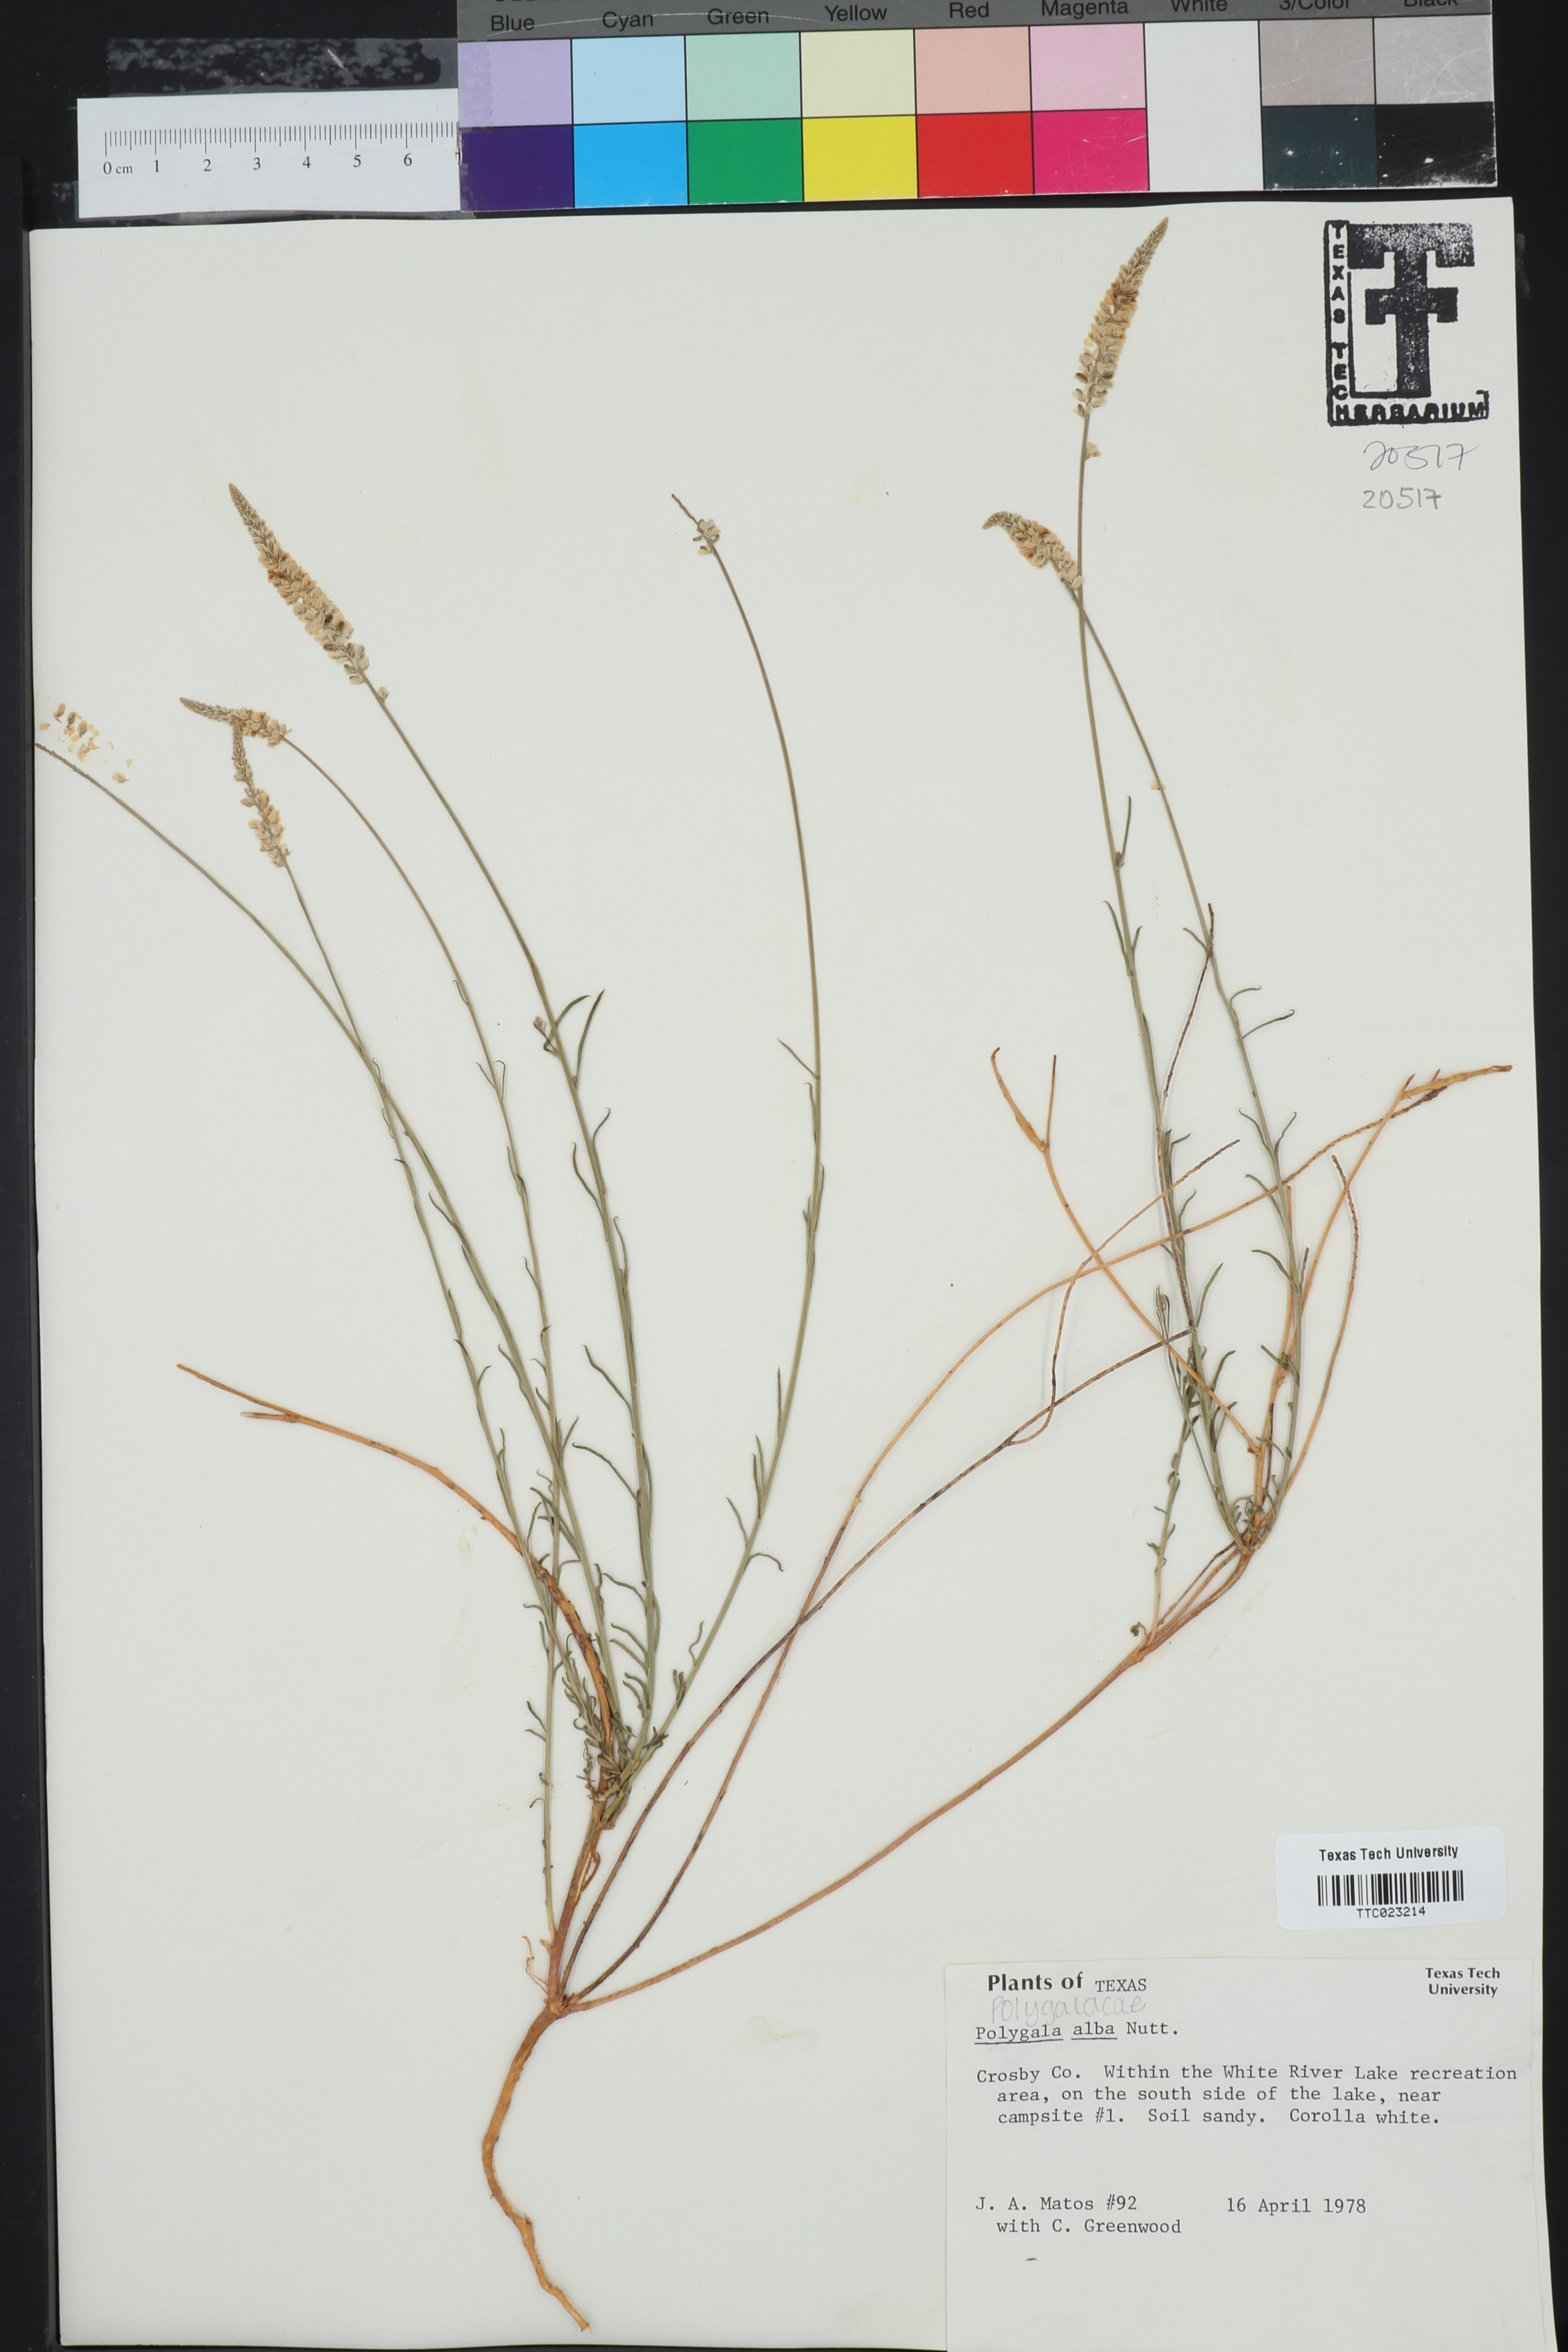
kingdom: Plantae
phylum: Tracheophyta
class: Magnoliopsida
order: Fabales
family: Polygalaceae
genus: Polygala
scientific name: Polygala alba
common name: White milkwort
